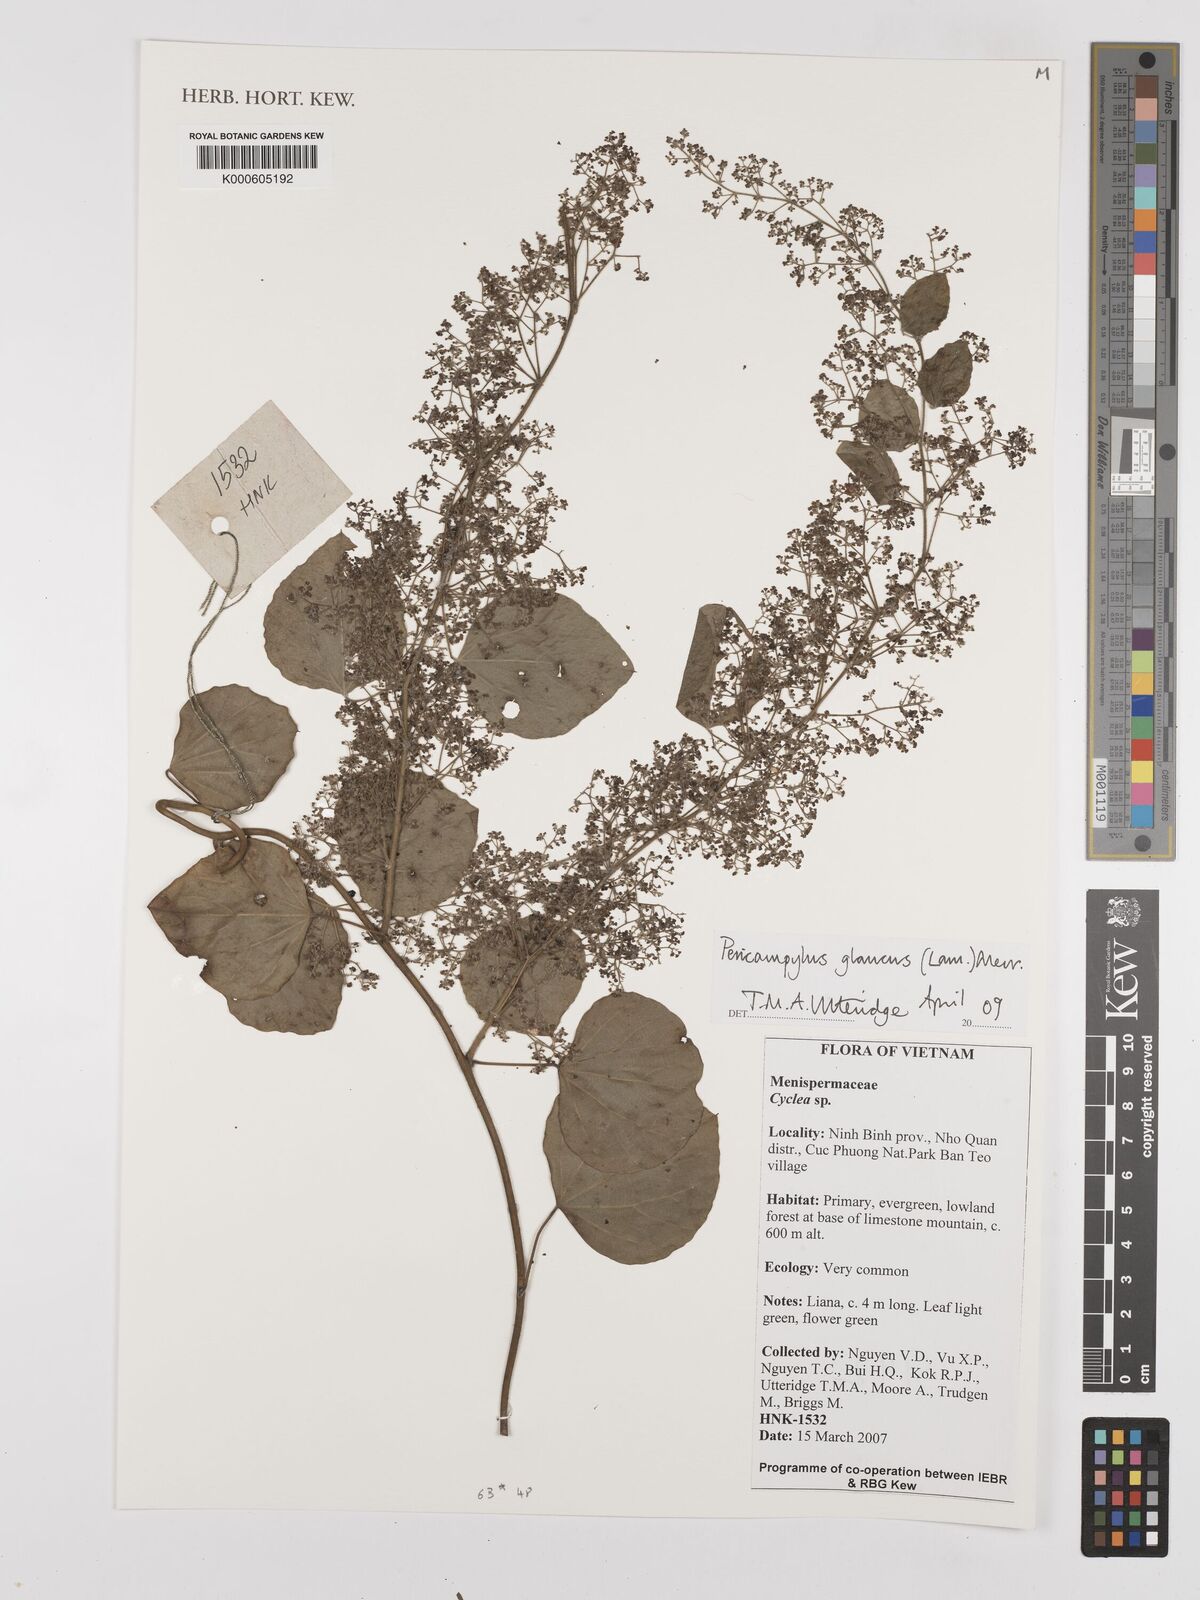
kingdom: Plantae
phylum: Tracheophyta
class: Magnoliopsida
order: Ranunculales
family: Menispermaceae
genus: Pericampylus
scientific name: Pericampylus glaucus
